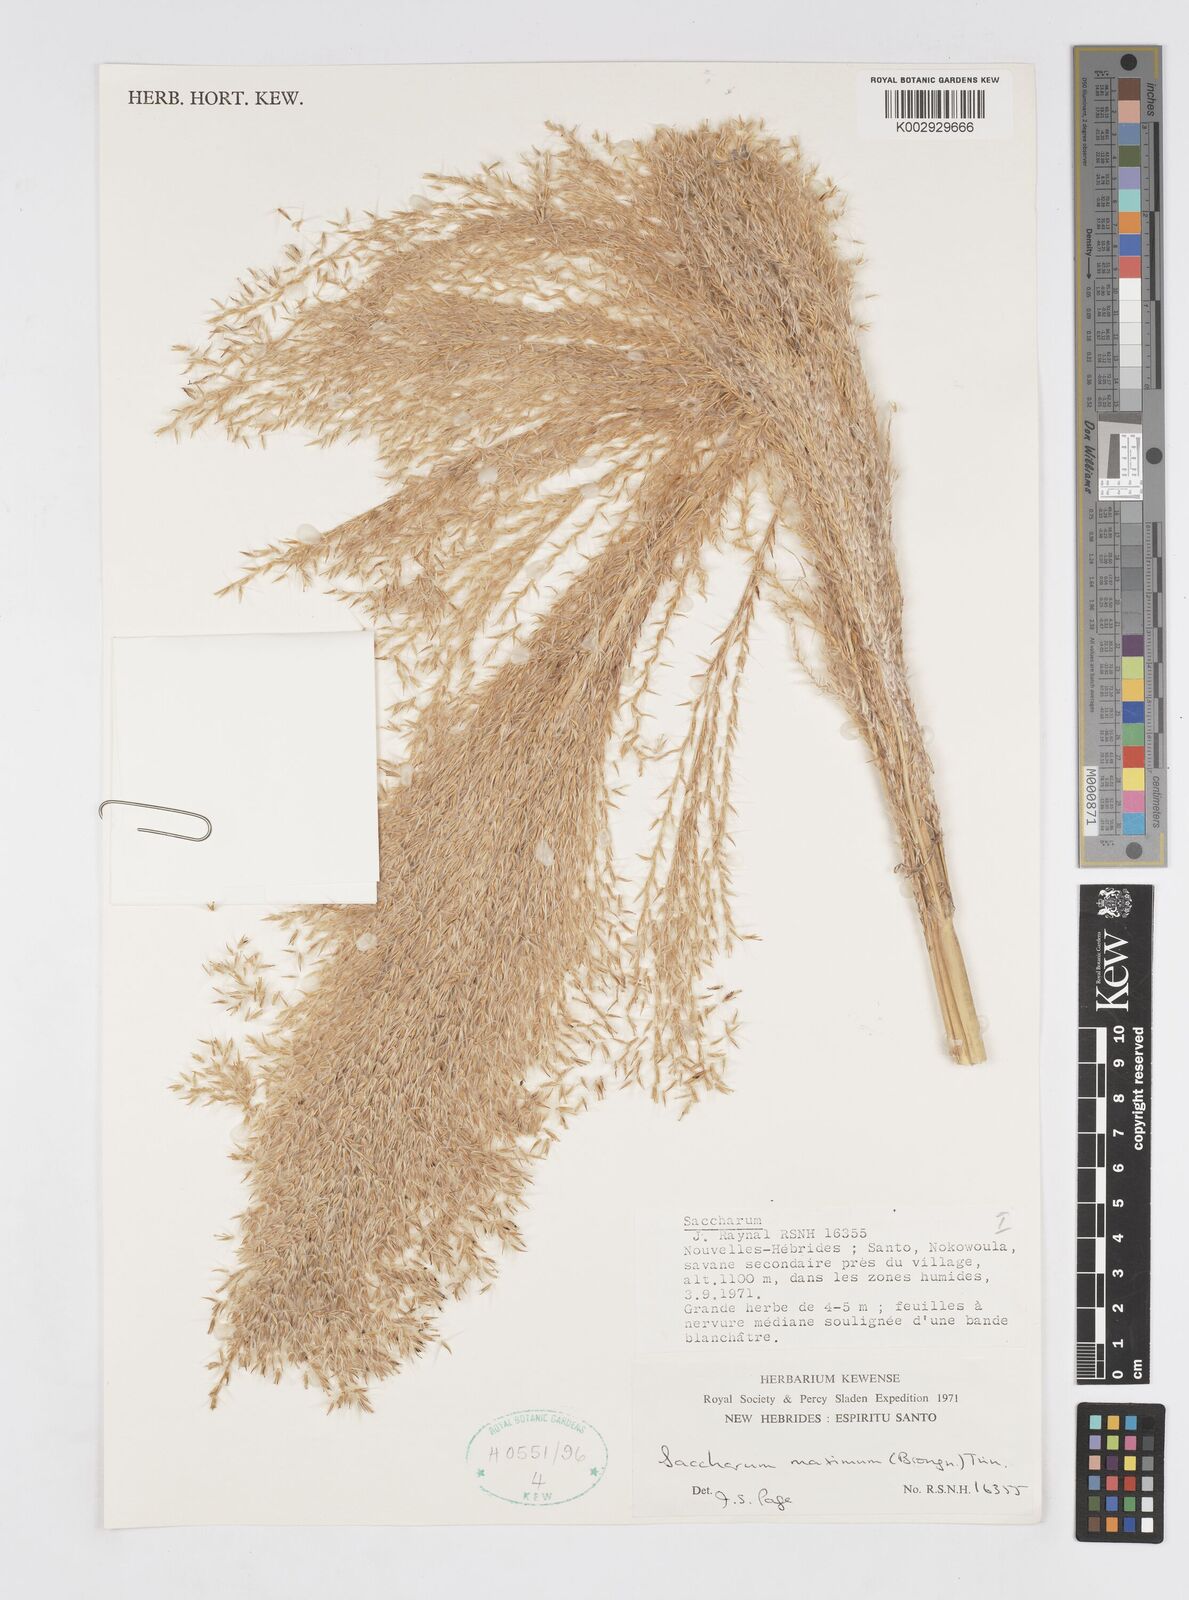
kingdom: Plantae
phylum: Tracheophyta
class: Liliopsida
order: Poales
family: Poaceae
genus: Saccharum
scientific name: Saccharum maximum
